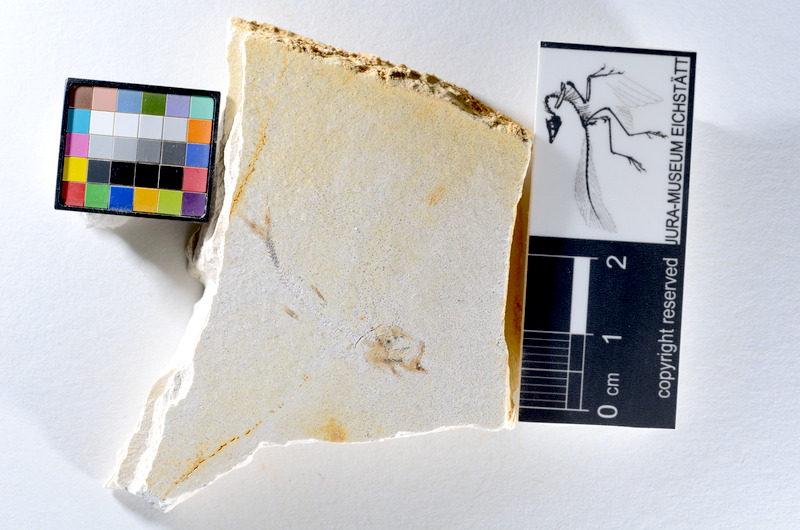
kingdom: Animalia
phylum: Chordata
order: Salmoniformes
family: Orthogonikleithridae
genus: Orthogonikleithrus
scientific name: Orthogonikleithrus hoelli
